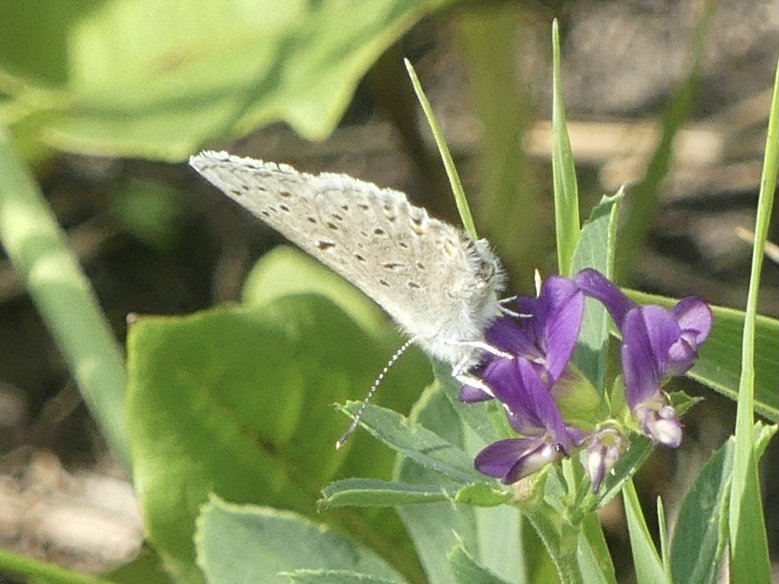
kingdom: Animalia
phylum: Arthropoda
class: Insecta
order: Lepidoptera
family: Lycaenidae
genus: Plebejus
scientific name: Plebejus saepiolus
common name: Greenish Blue
